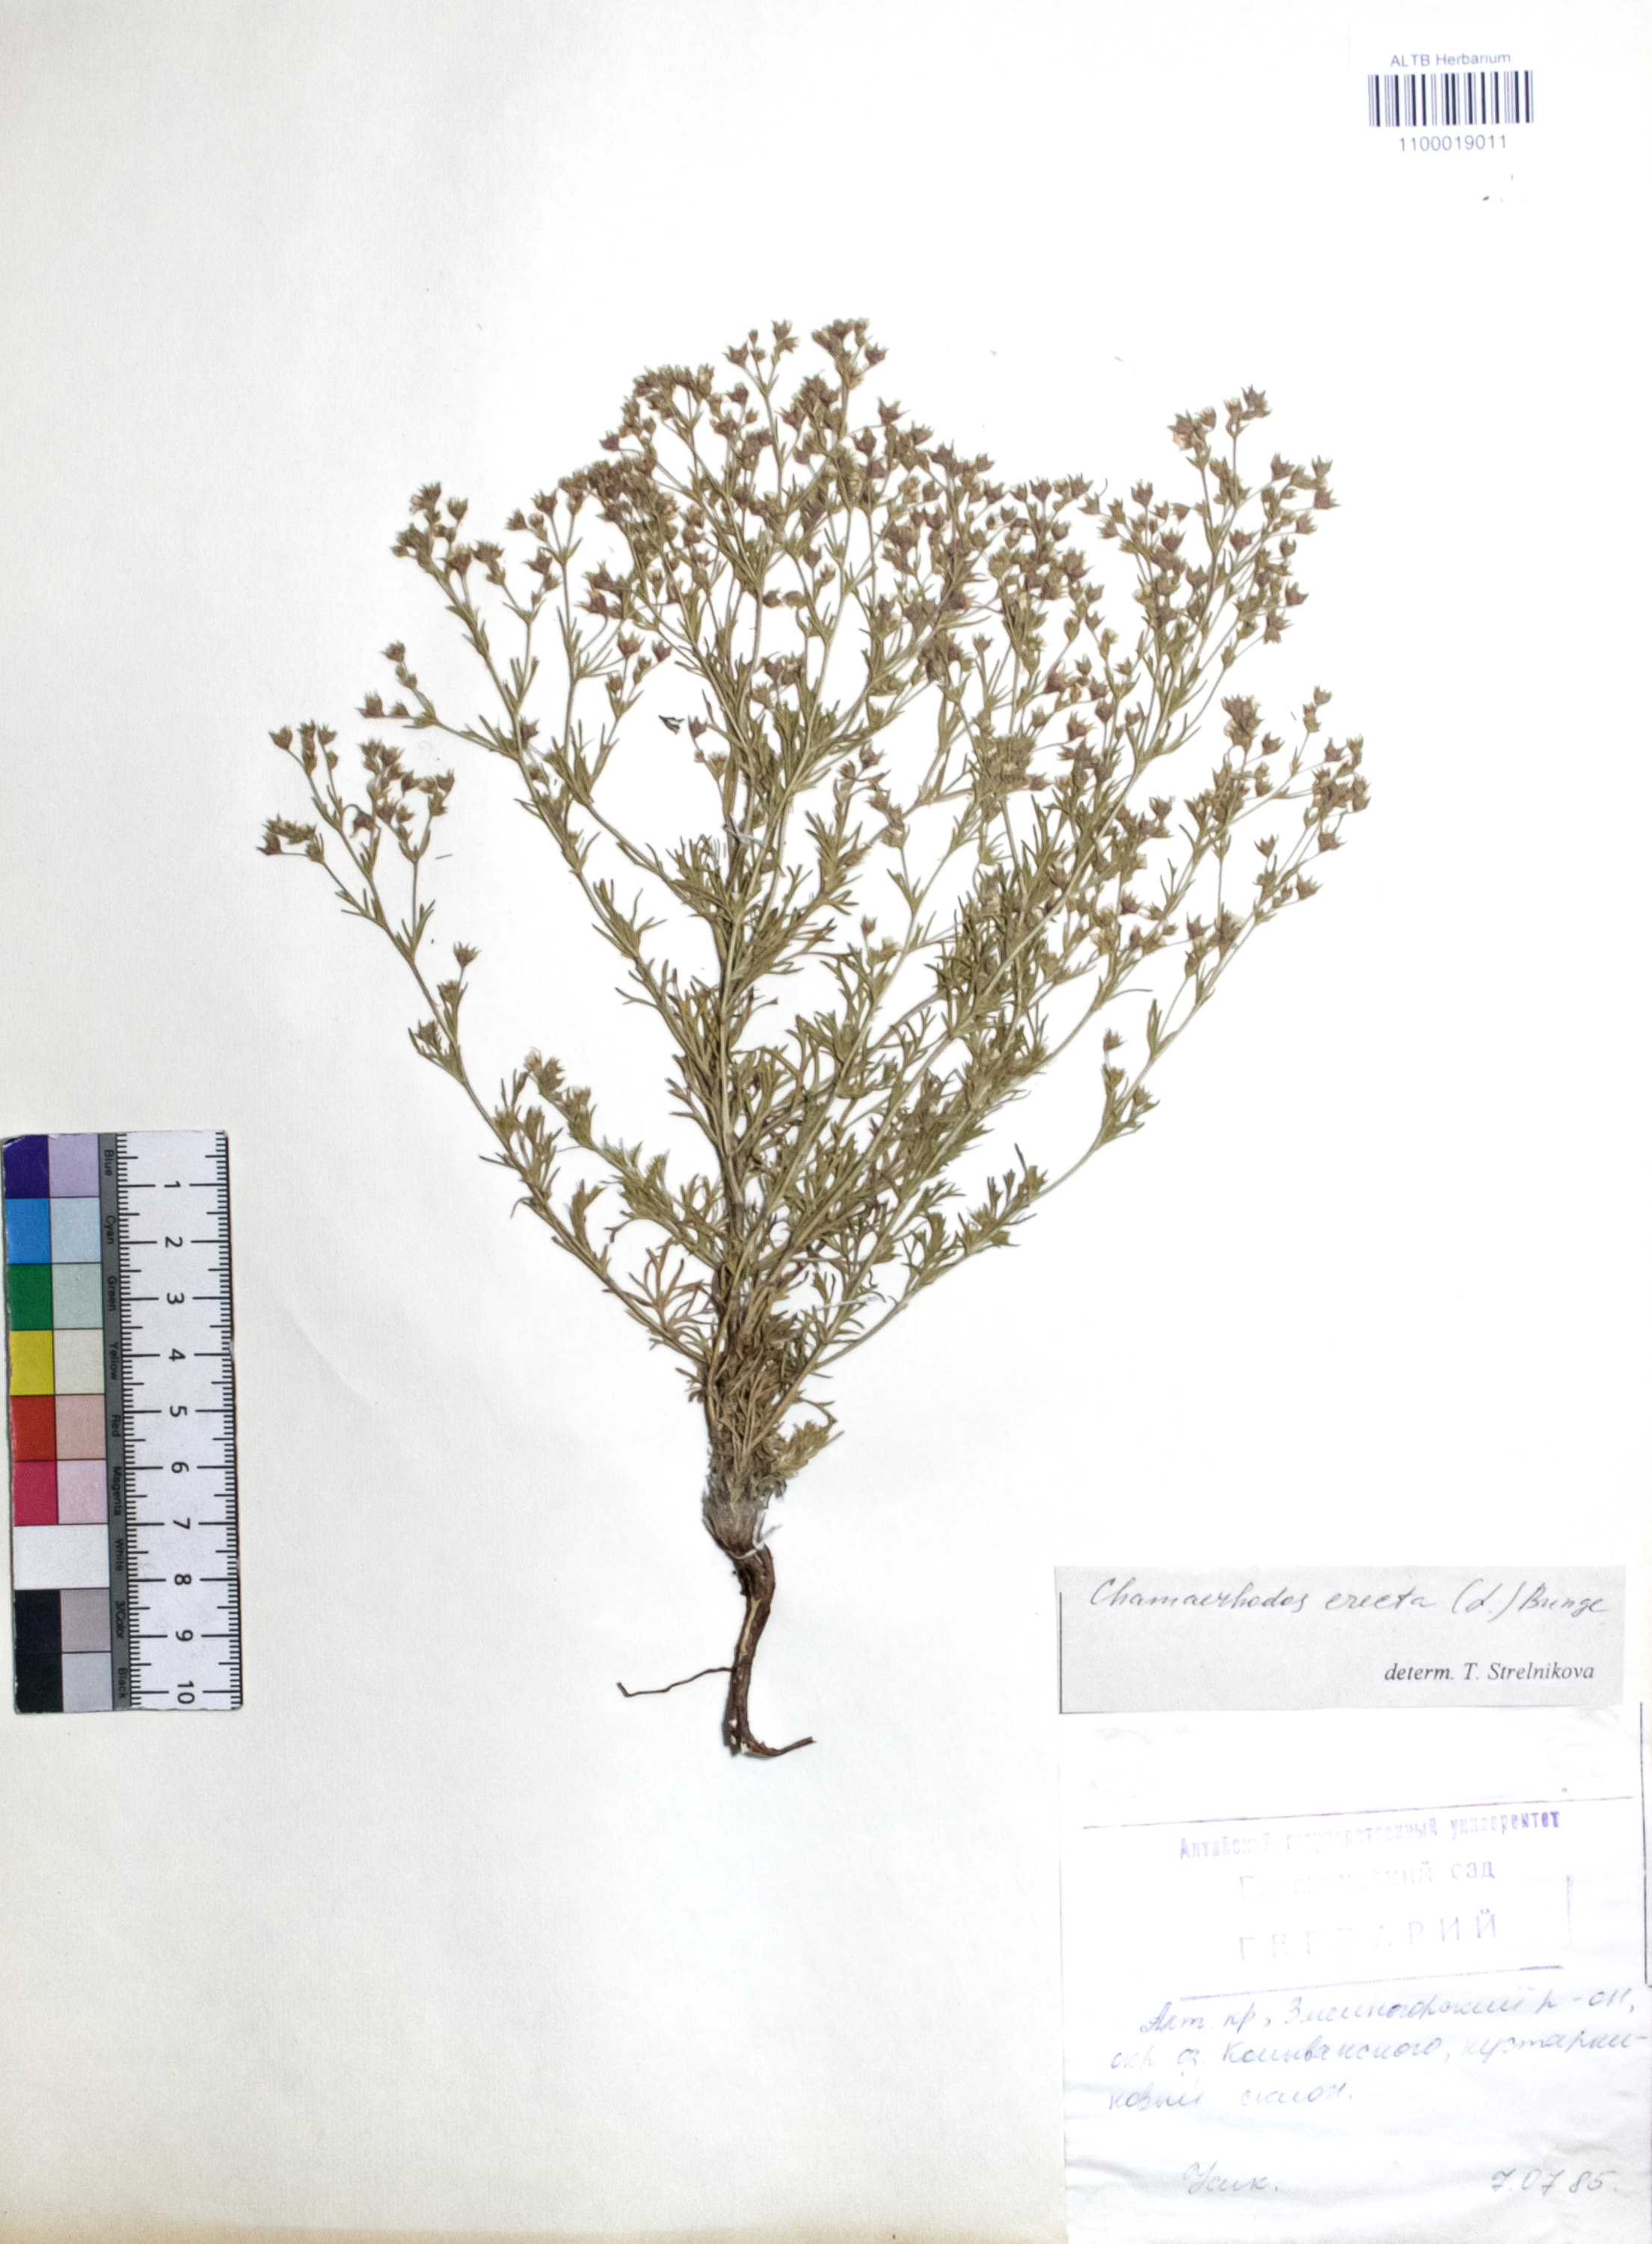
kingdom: Plantae
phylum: Tracheophyta
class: Magnoliopsida
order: Rosales
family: Rosaceae
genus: Chamaerhodos
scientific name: Chamaerhodos erecta
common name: American chamaerhodos
